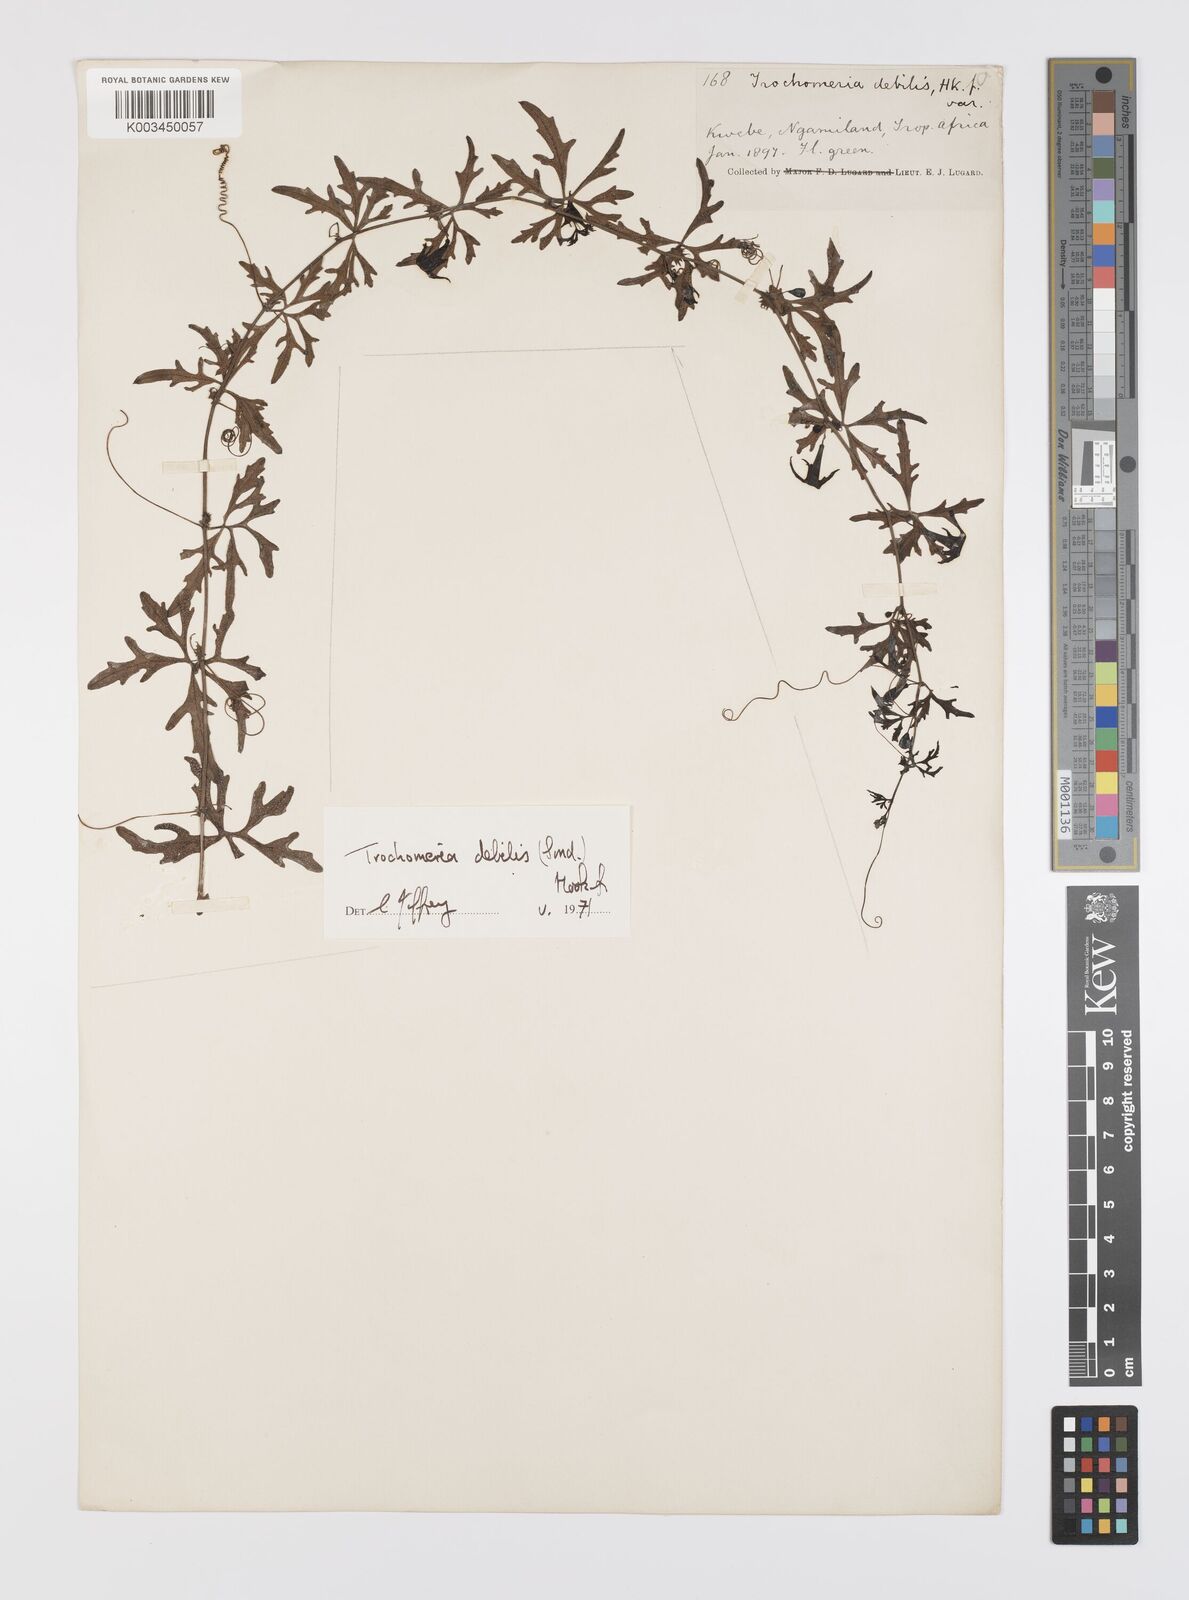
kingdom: Plantae
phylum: Tracheophyta
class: Magnoliopsida
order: Cucurbitales
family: Cucurbitaceae
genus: Trochomeria
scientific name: Trochomeria debilis
